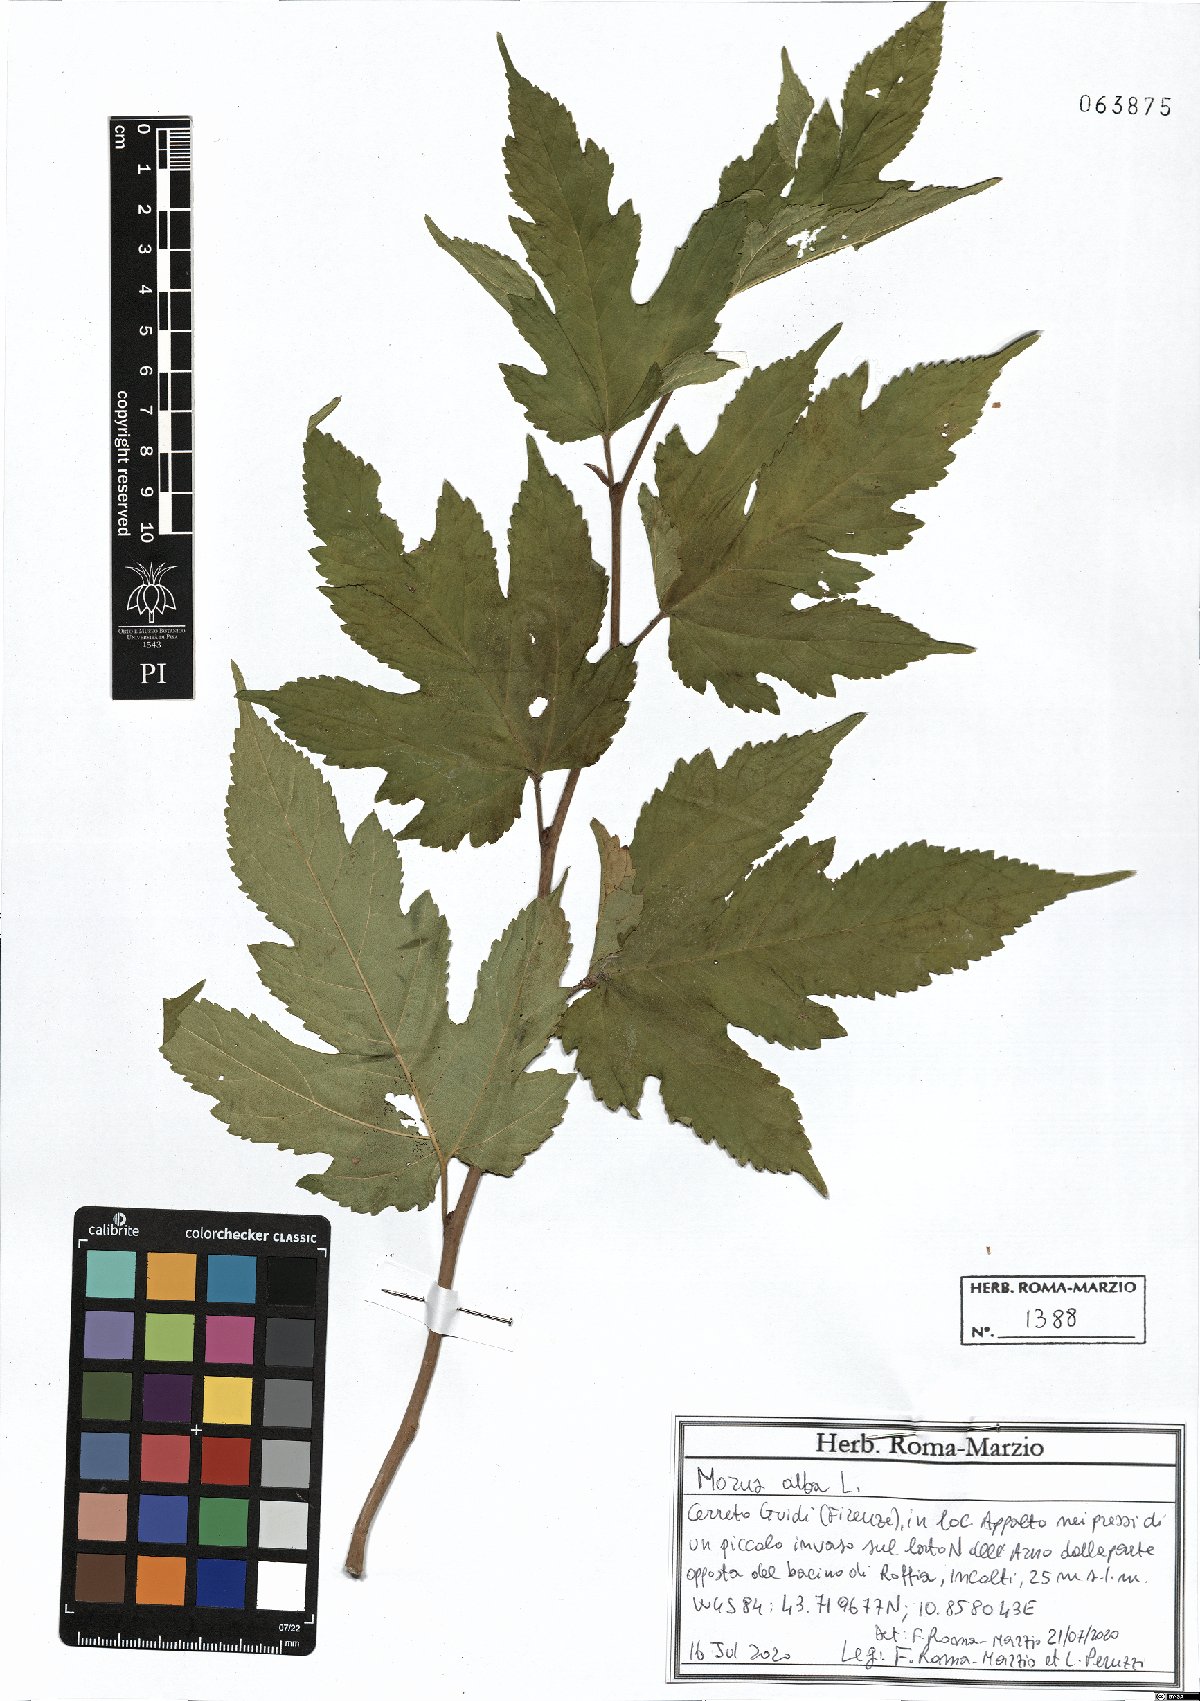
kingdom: Plantae
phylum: Tracheophyta
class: Magnoliopsida
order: Rosales
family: Moraceae
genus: Morus
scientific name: Morus alba
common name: White mulberry
